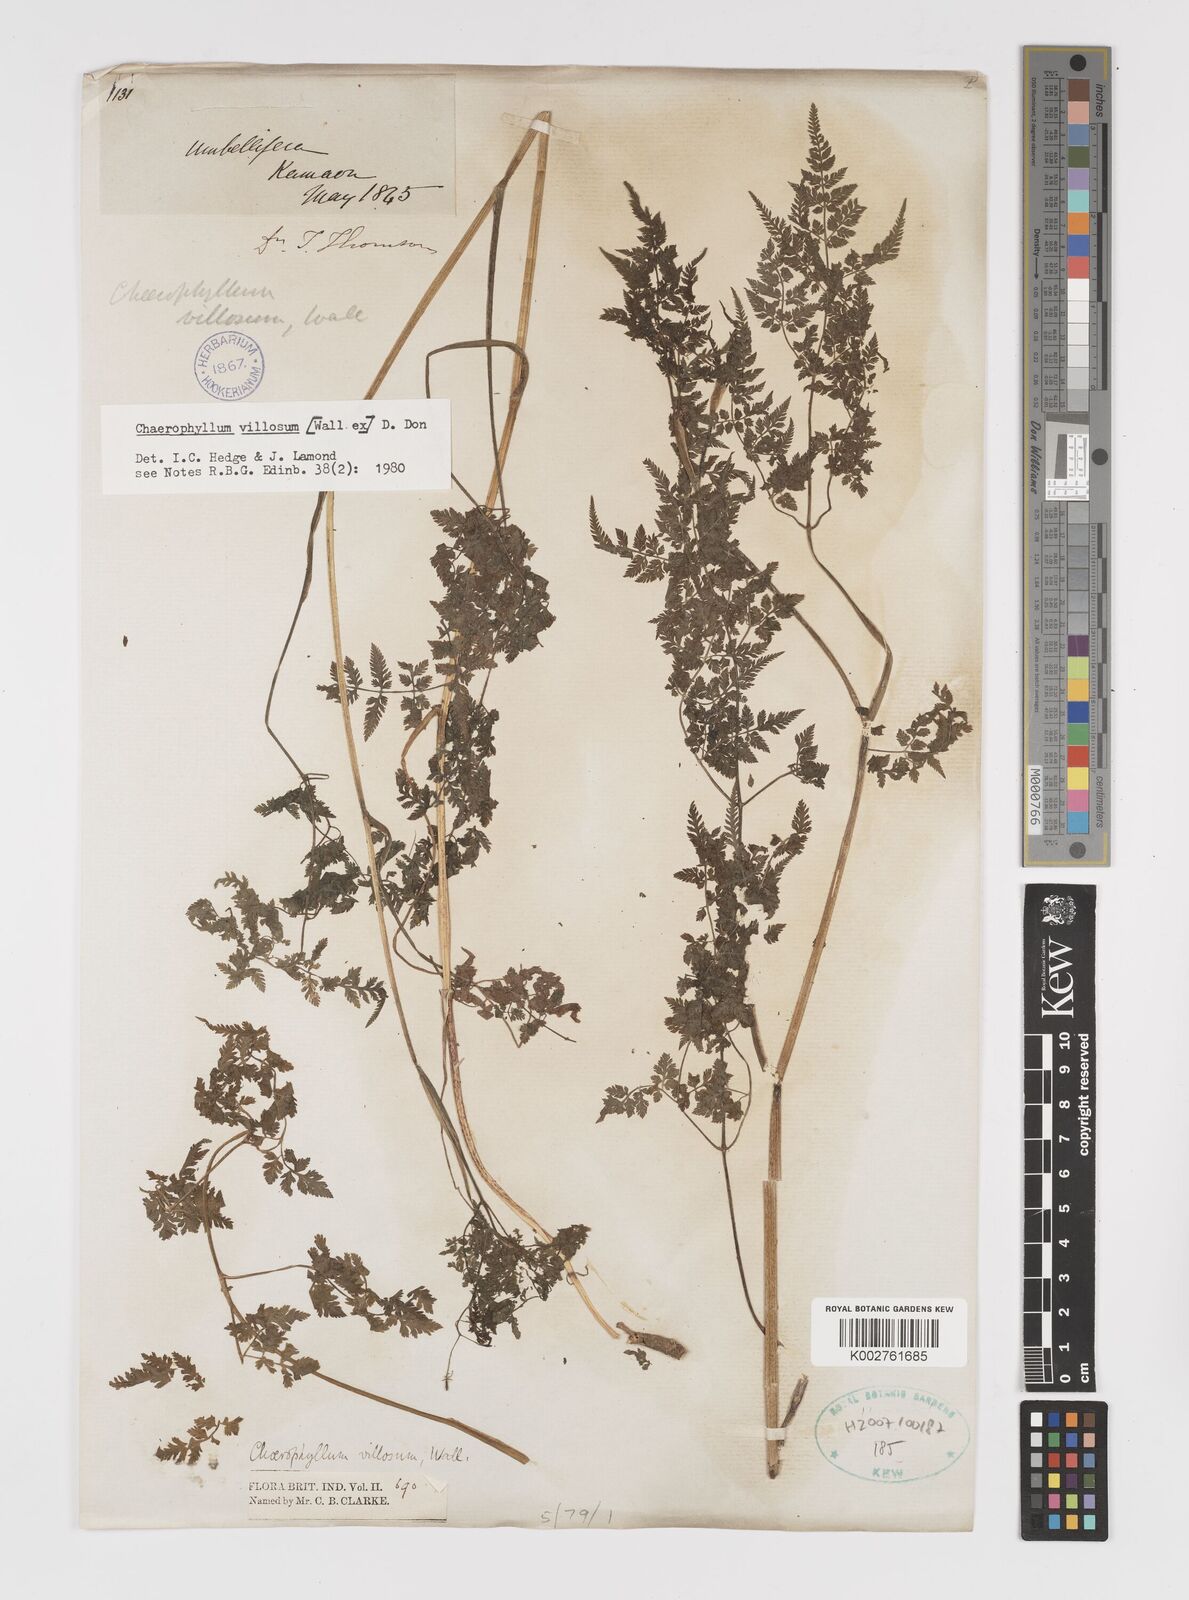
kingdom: Plantae
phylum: Tracheophyta
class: Magnoliopsida
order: Apiales
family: Apiaceae
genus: Chaerophyllum
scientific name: Chaerophyllum villosum
